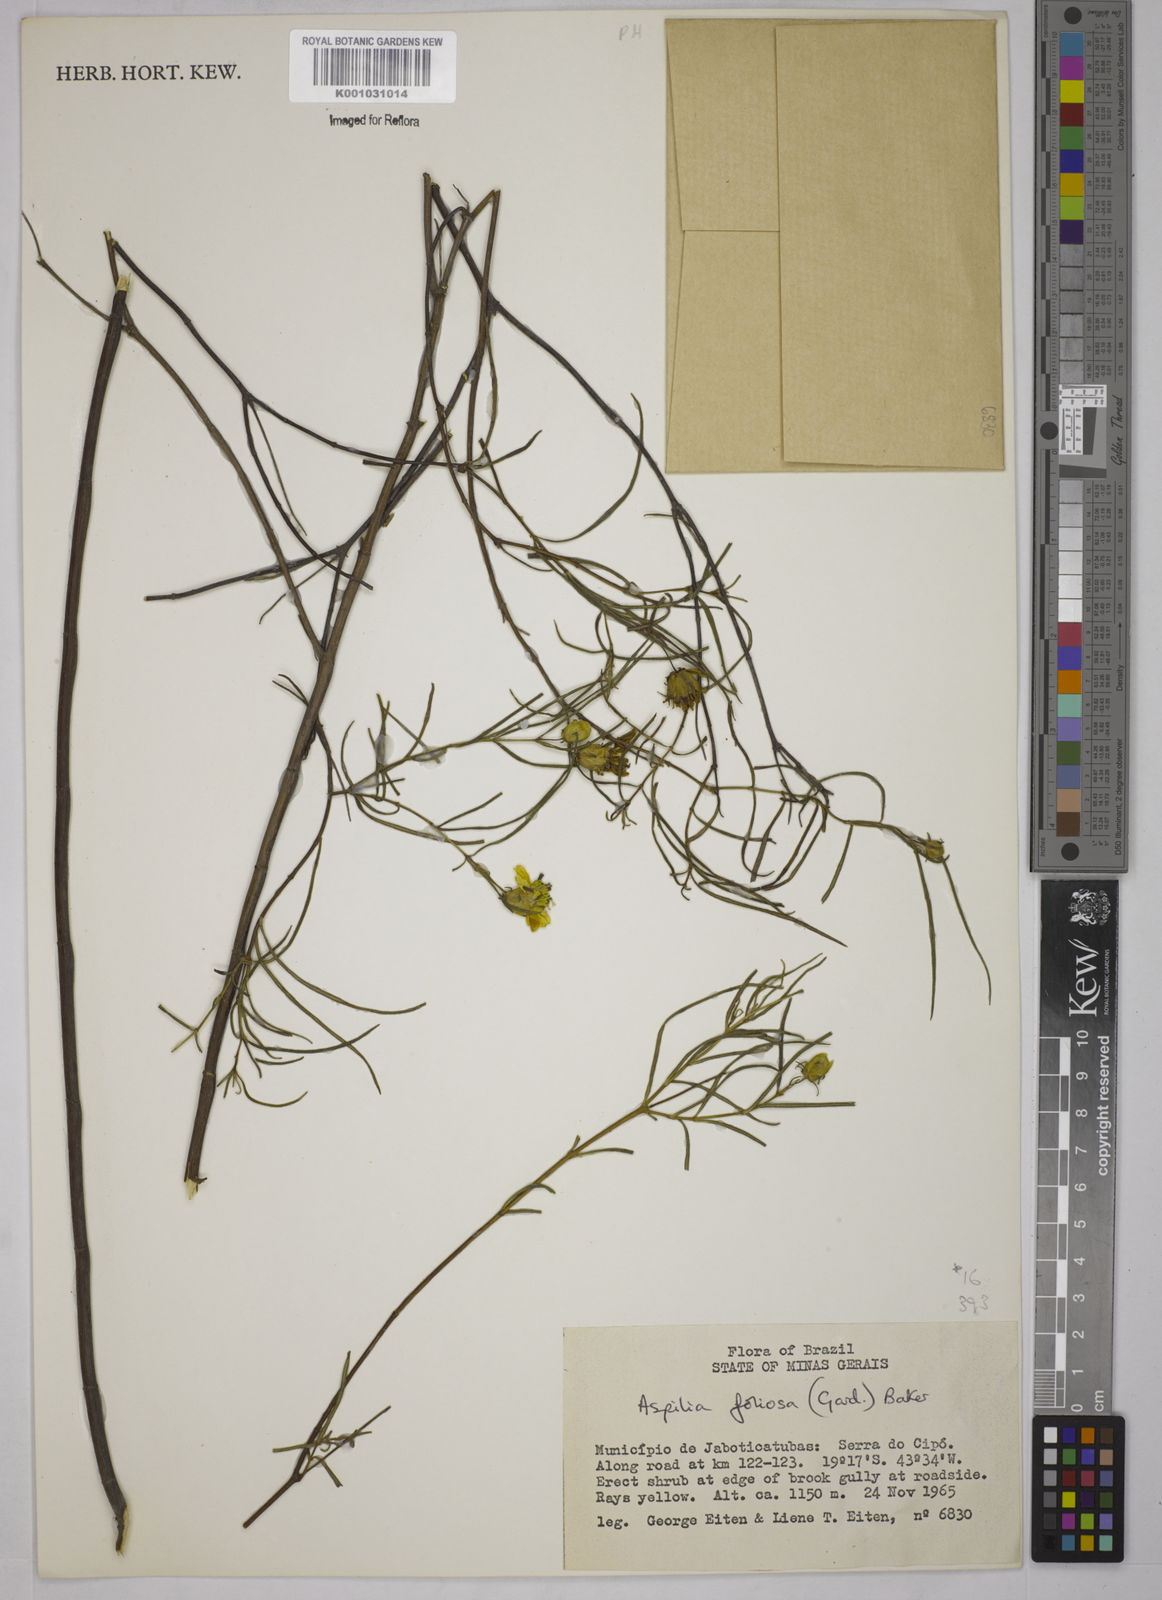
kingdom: Plantae
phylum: Tracheophyta
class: Magnoliopsida
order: Asterales
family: Asteraceae
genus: Aspilia
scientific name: Aspilia
